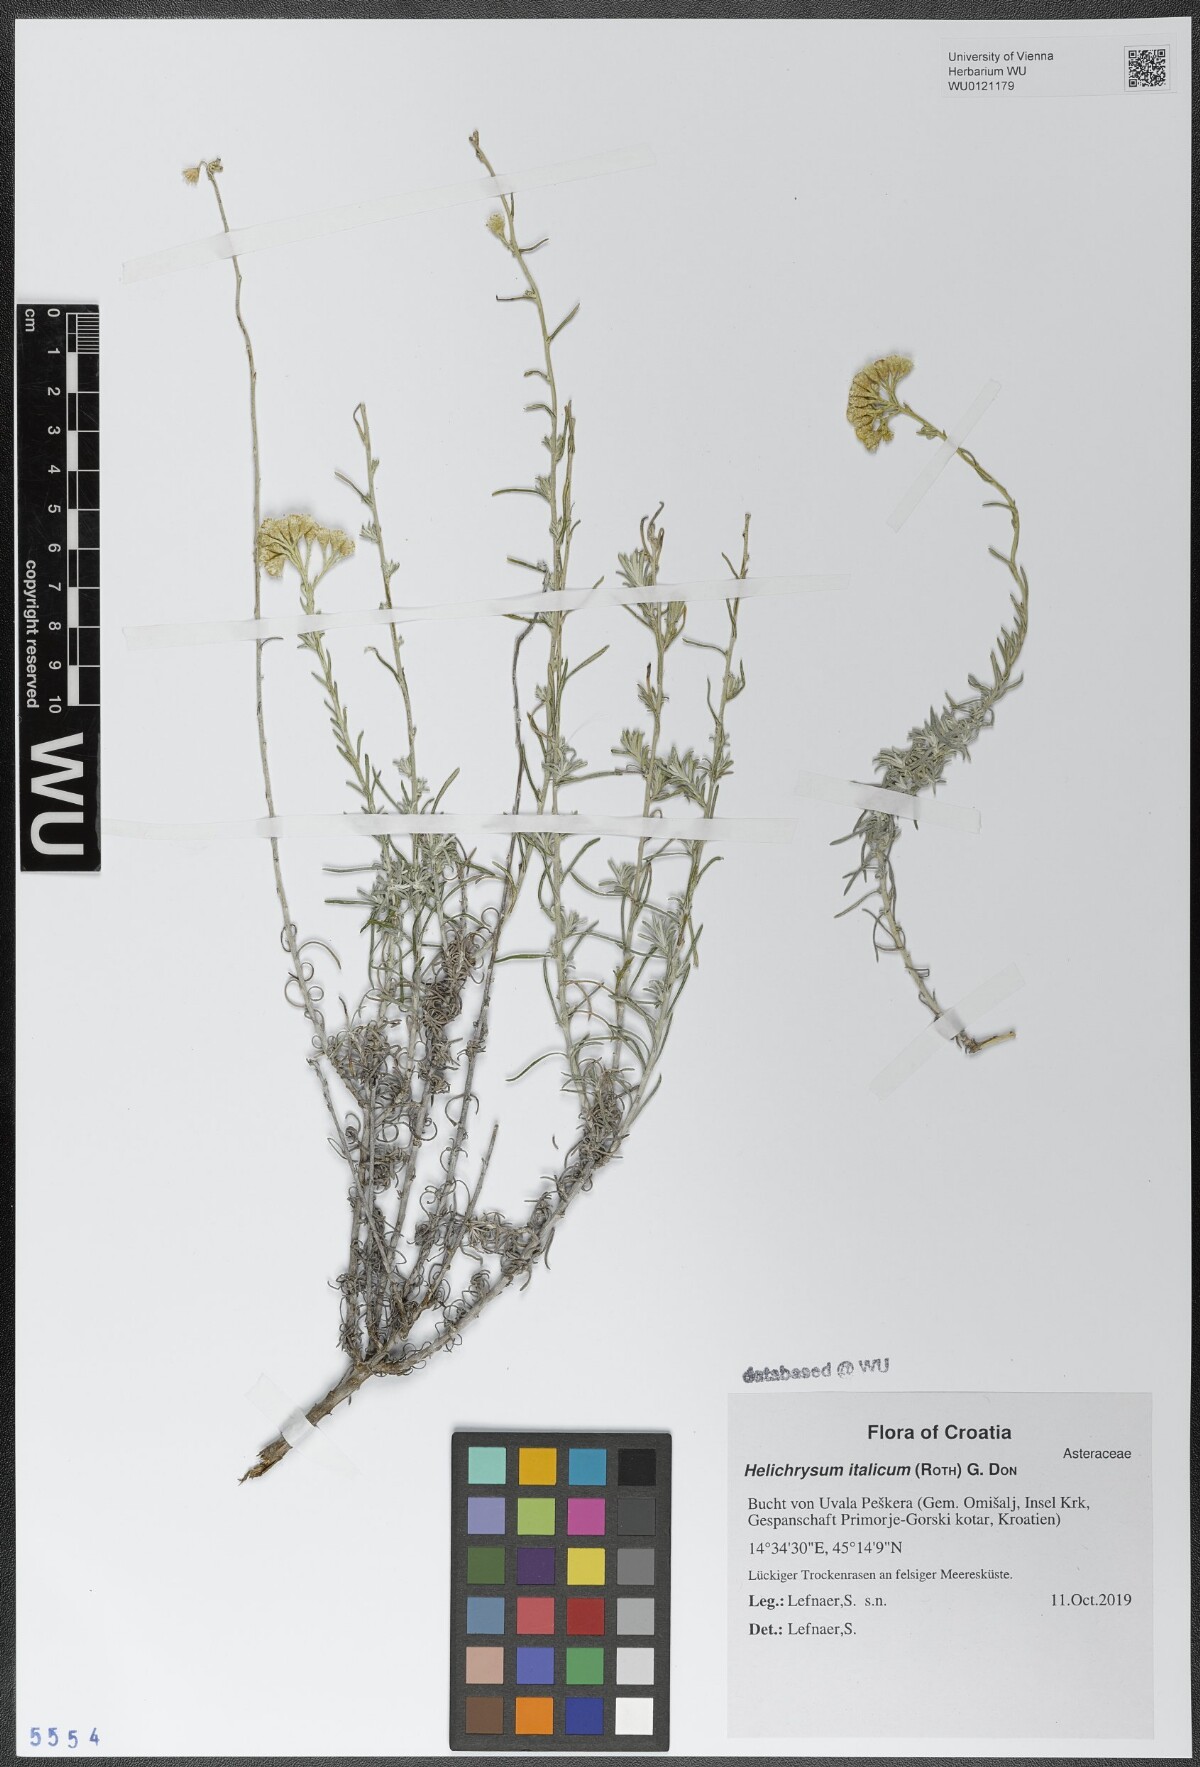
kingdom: Plantae
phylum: Tracheophyta
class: Magnoliopsida
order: Asterales
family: Asteraceae
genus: Helichrysum
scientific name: Helichrysum italicum
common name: Curryplant
